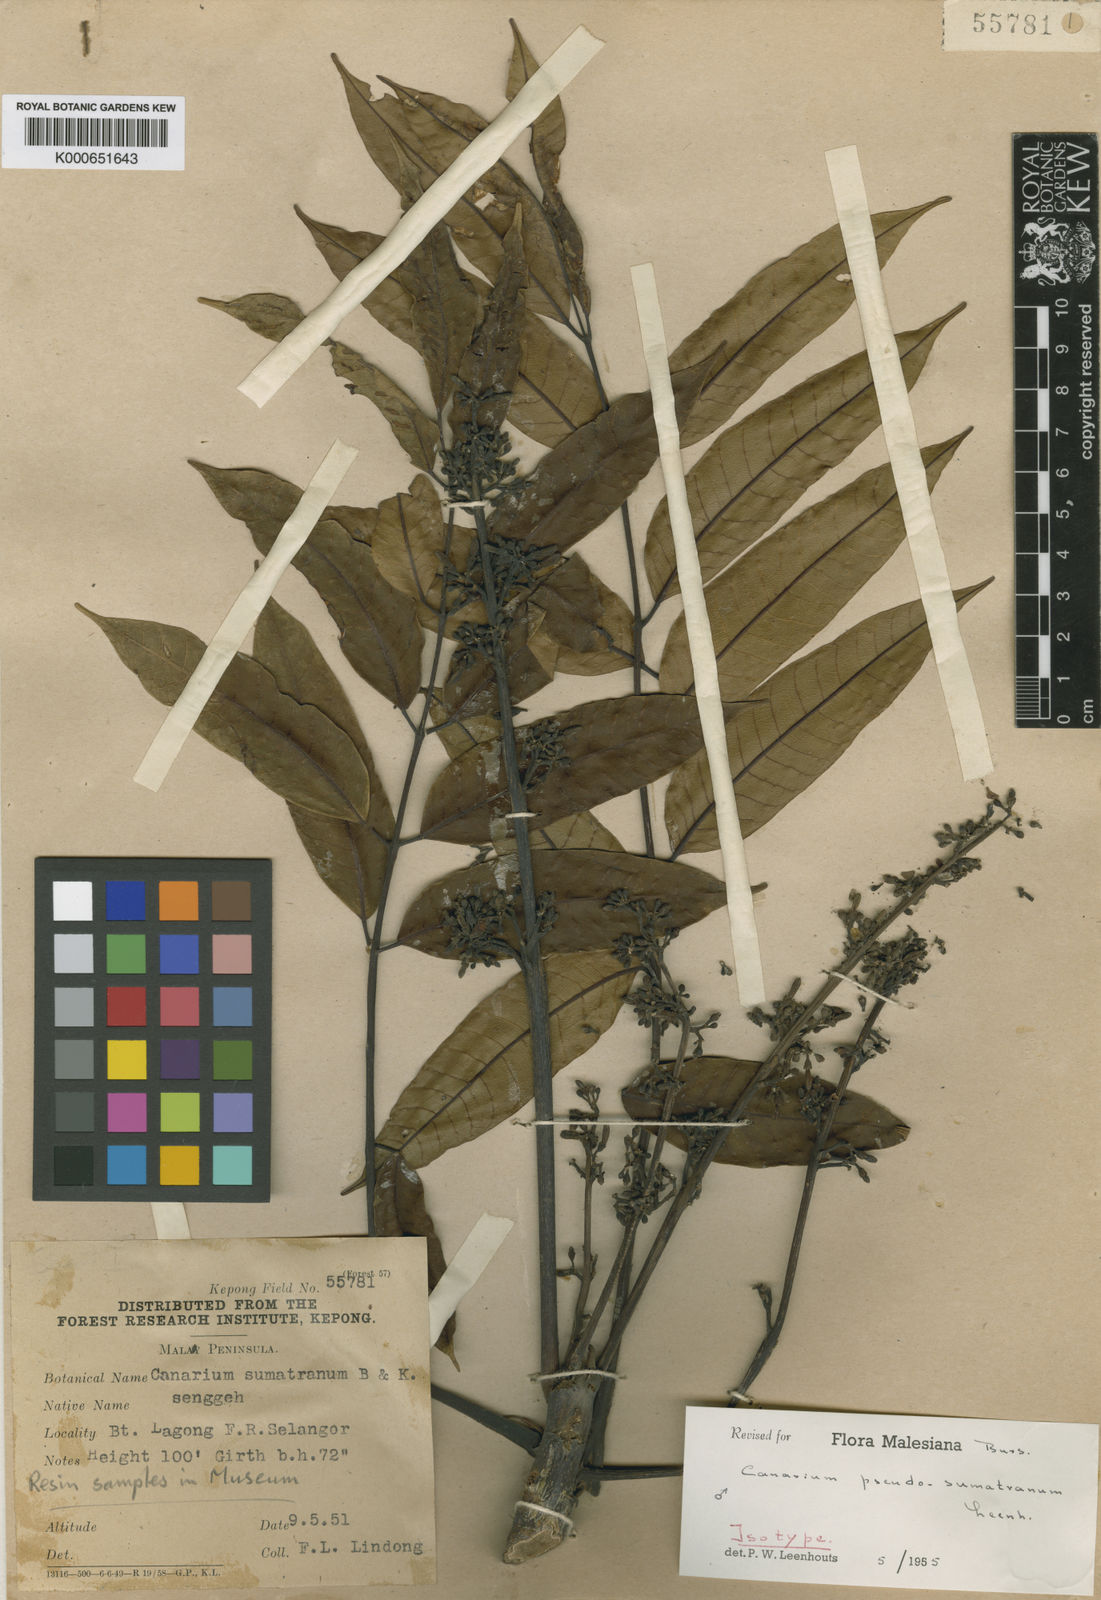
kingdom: Plantae
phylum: Tracheophyta
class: Magnoliopsida
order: Sapindales
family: Burseraceae
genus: Canarium
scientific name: Canarium pseudosumatranum
